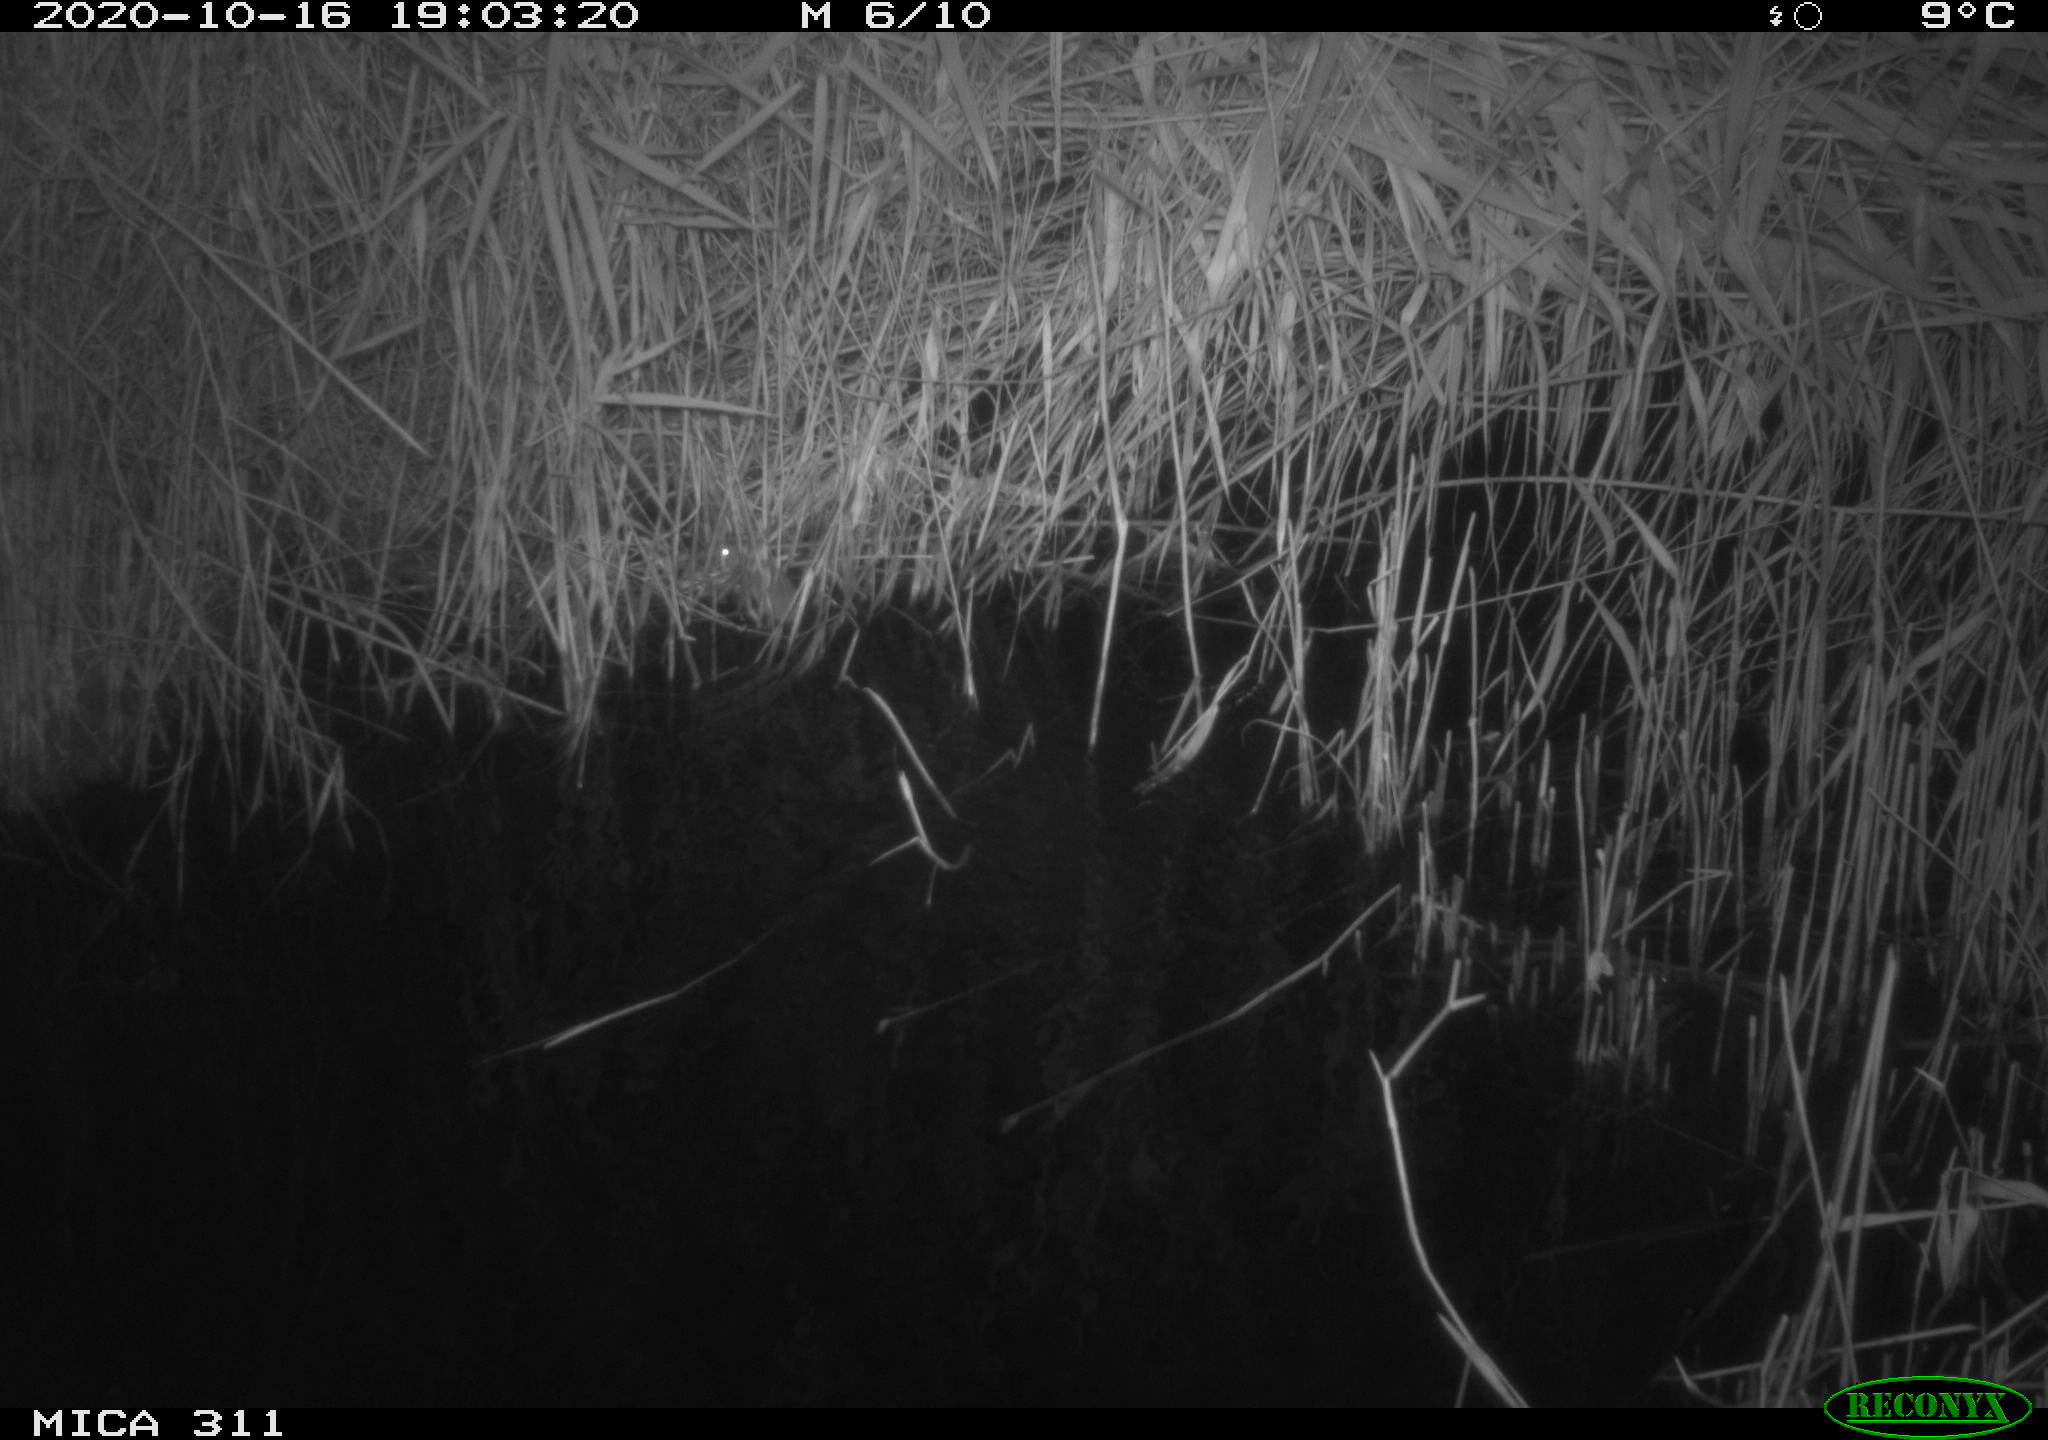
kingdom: Animalia
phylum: Chordata
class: Mammalia
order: Rodentia
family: Muridae
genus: Rattus
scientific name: Rattus norvegicus
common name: Brown rat
